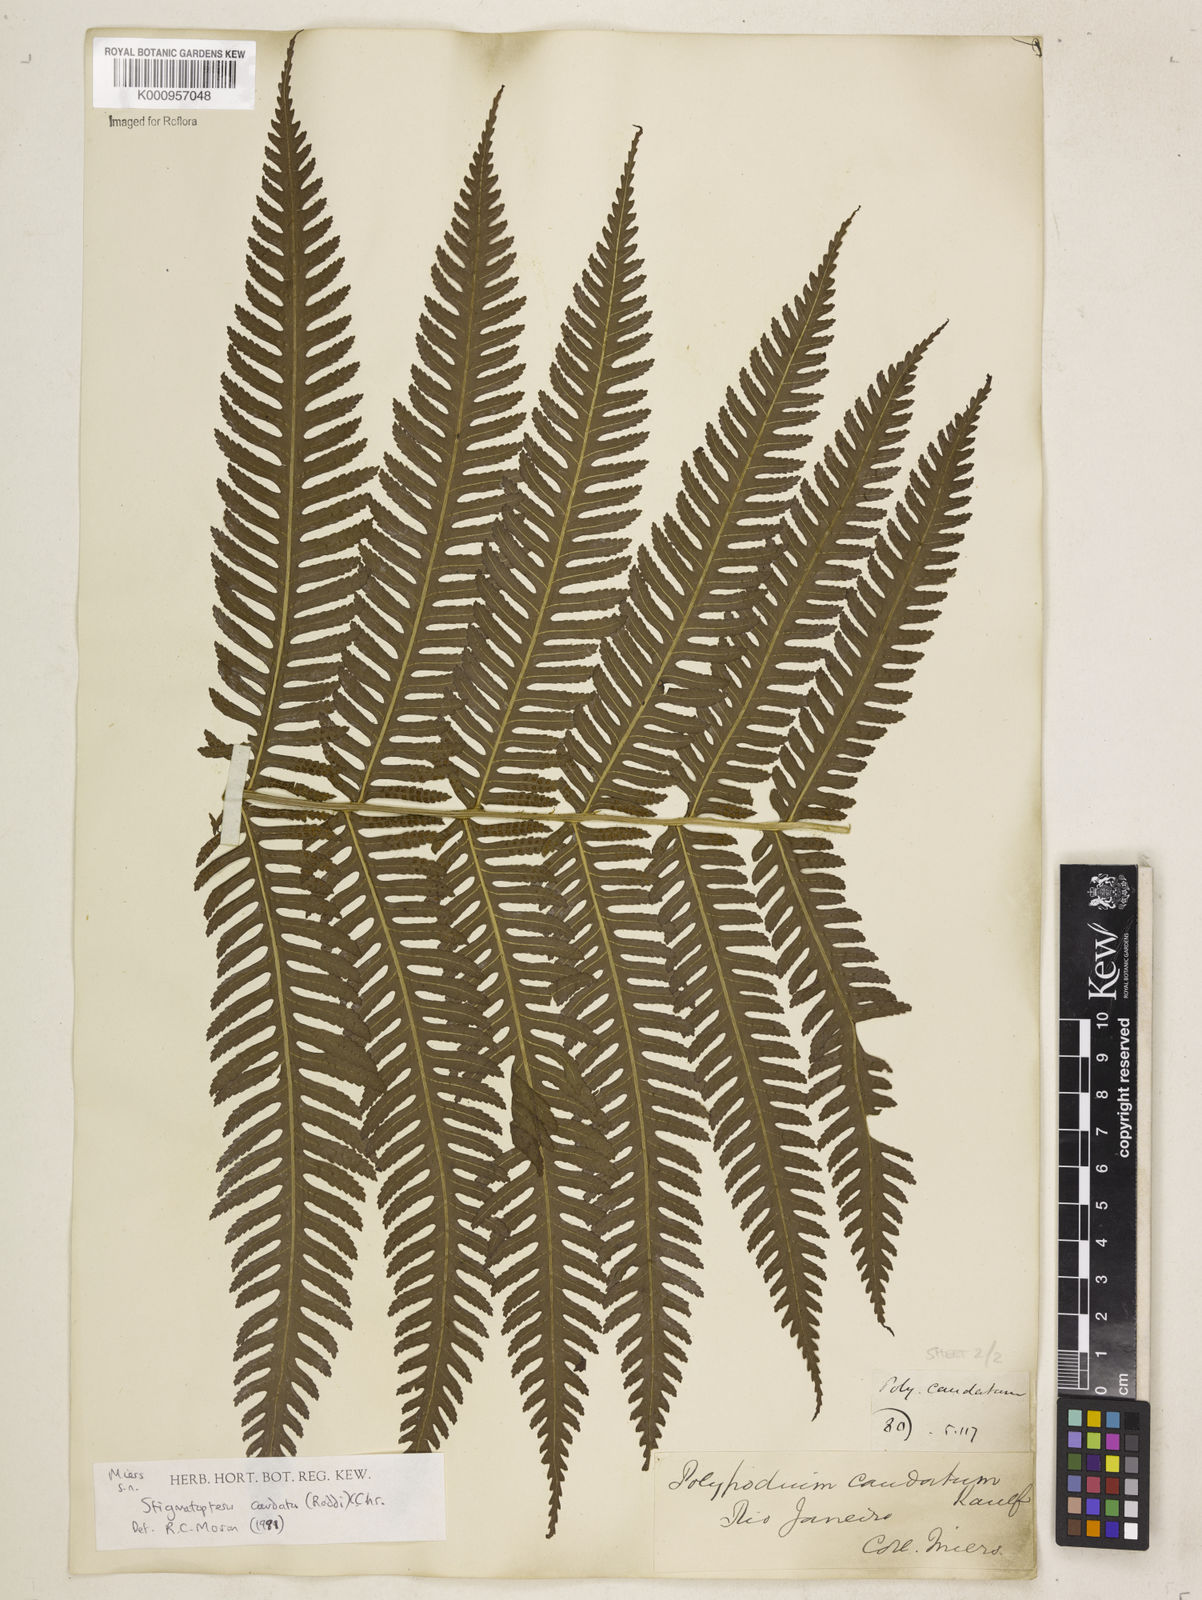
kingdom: Plantae
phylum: Tracheophyta
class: Polypodiopsida
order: Polypodiales
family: Dryopteridaceae
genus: Stigmatopteris
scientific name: Stigmatopteris caudata
